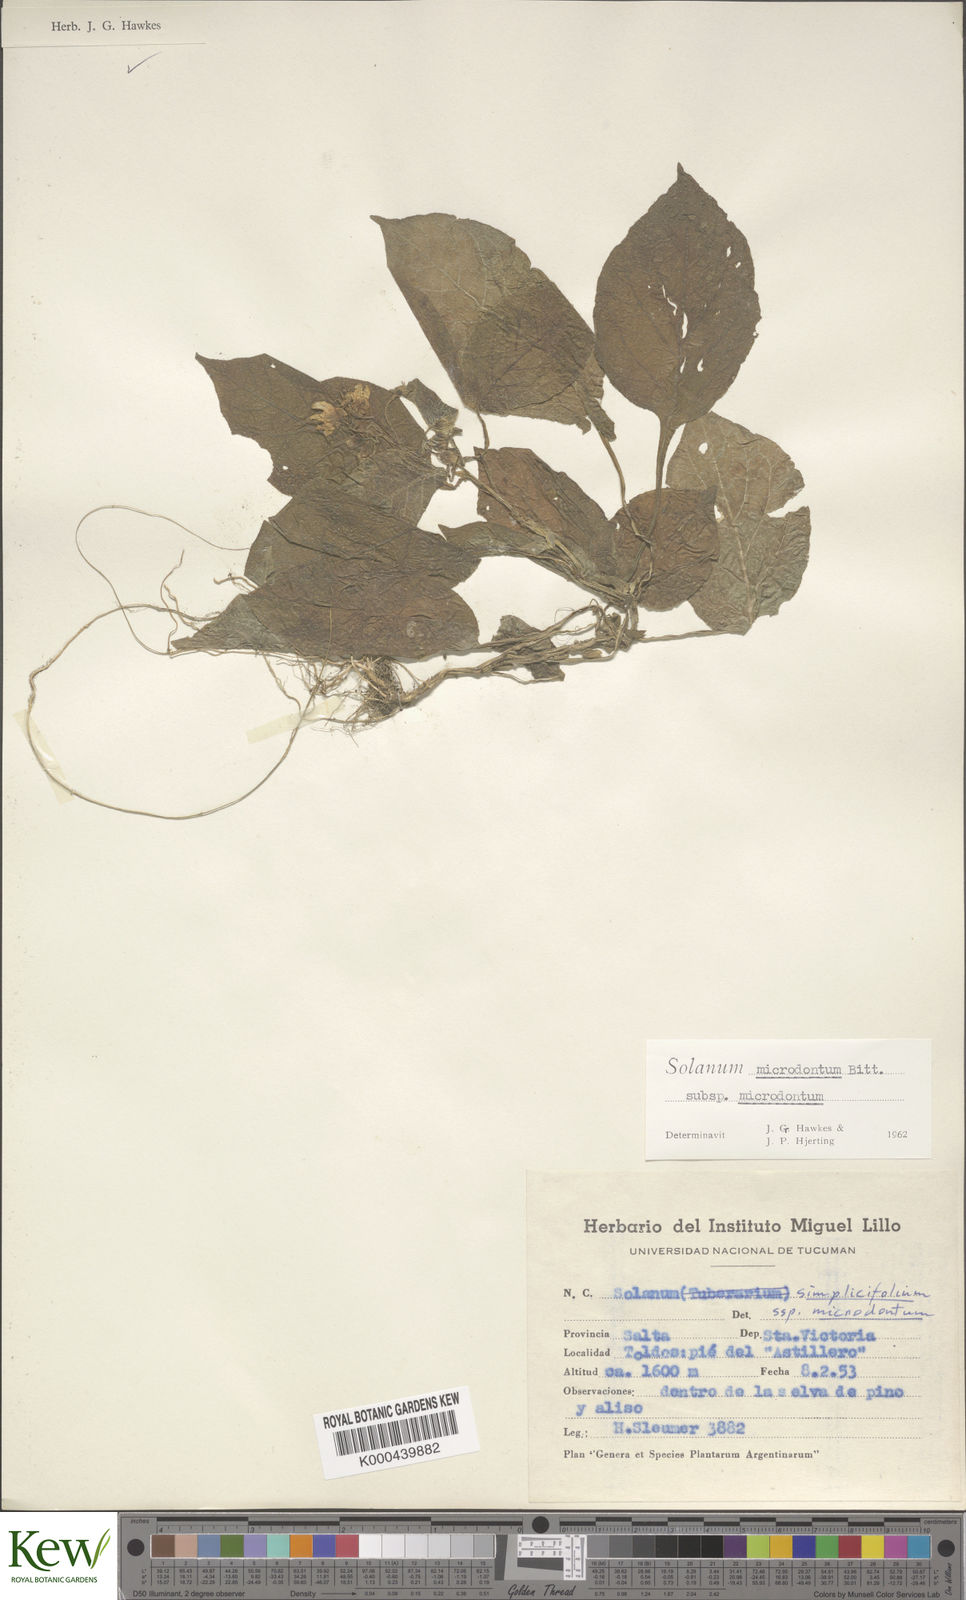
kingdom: Plantae
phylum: Tracheophyta
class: Magnoliopsida
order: Solanales
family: Solanaceae
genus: Solanum
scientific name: Solanum microdontum
